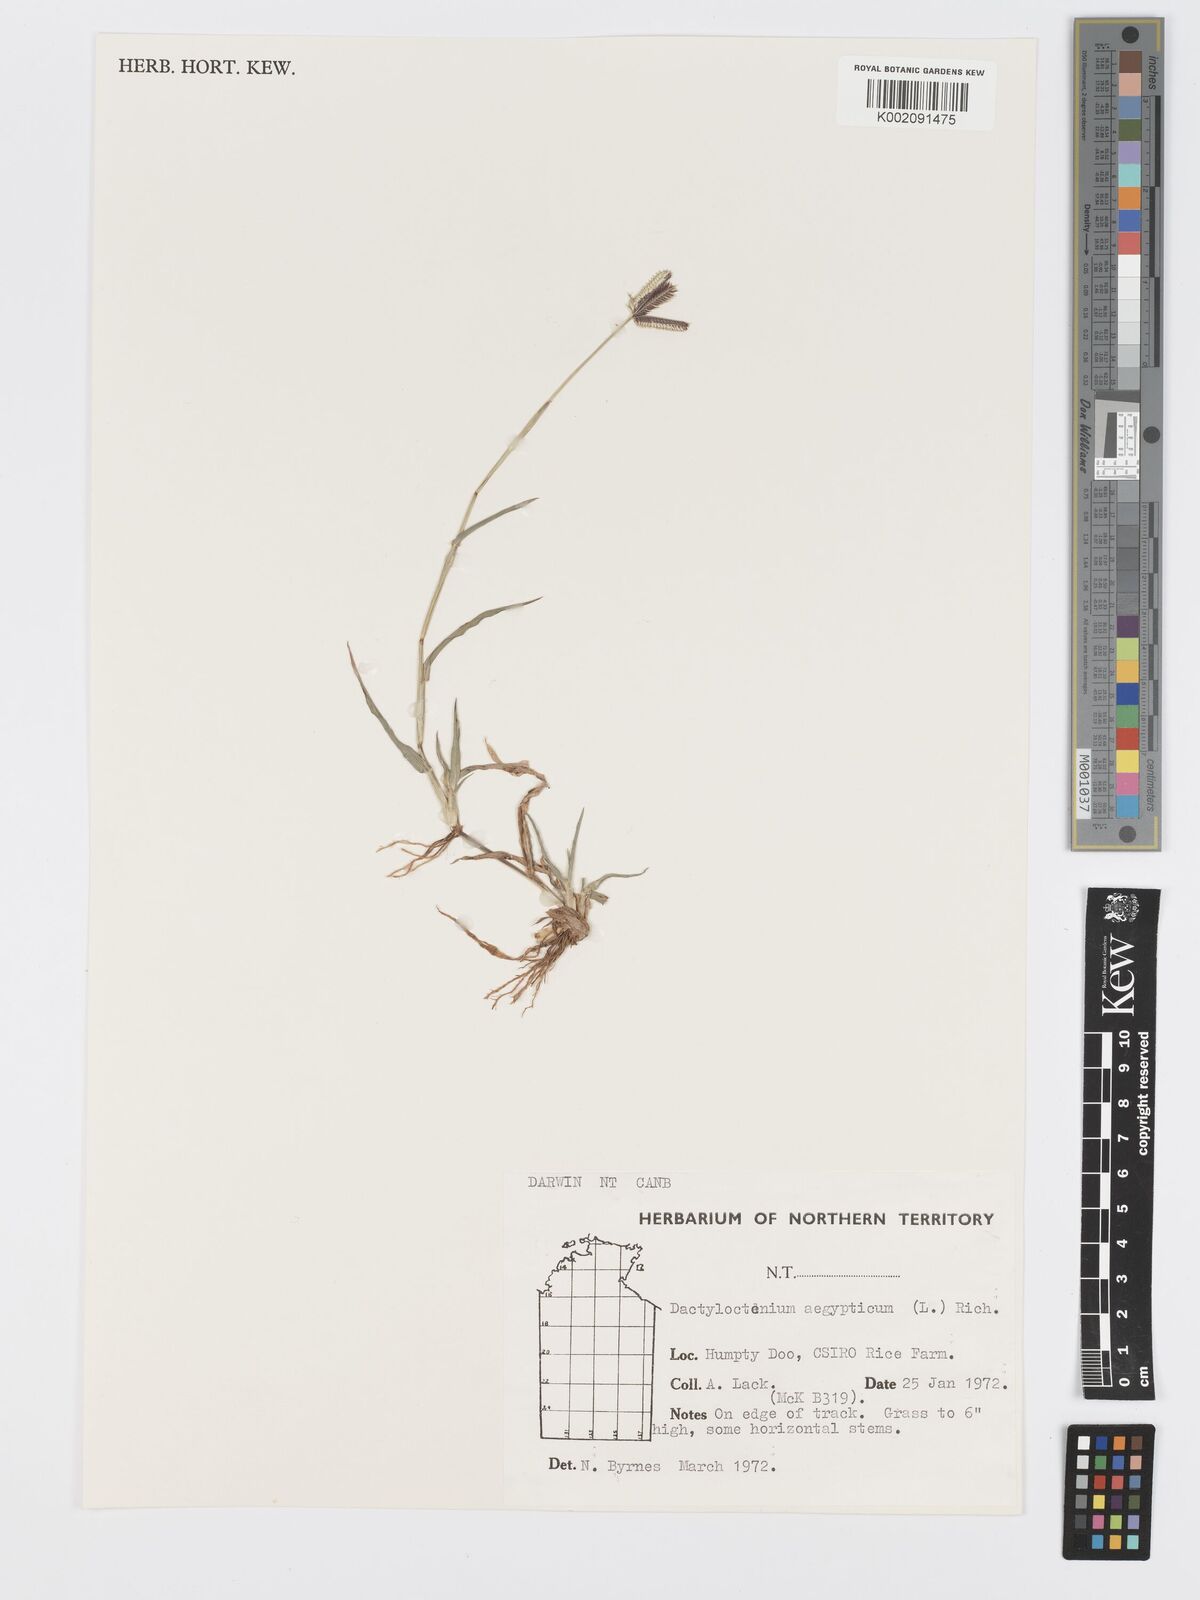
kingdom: Plantae
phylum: Tracheophyta
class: Liliopsida
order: Poales
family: Poaceae
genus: Dactyloctenium
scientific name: Dactyloctenium aegyptium
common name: Egyptian grass
